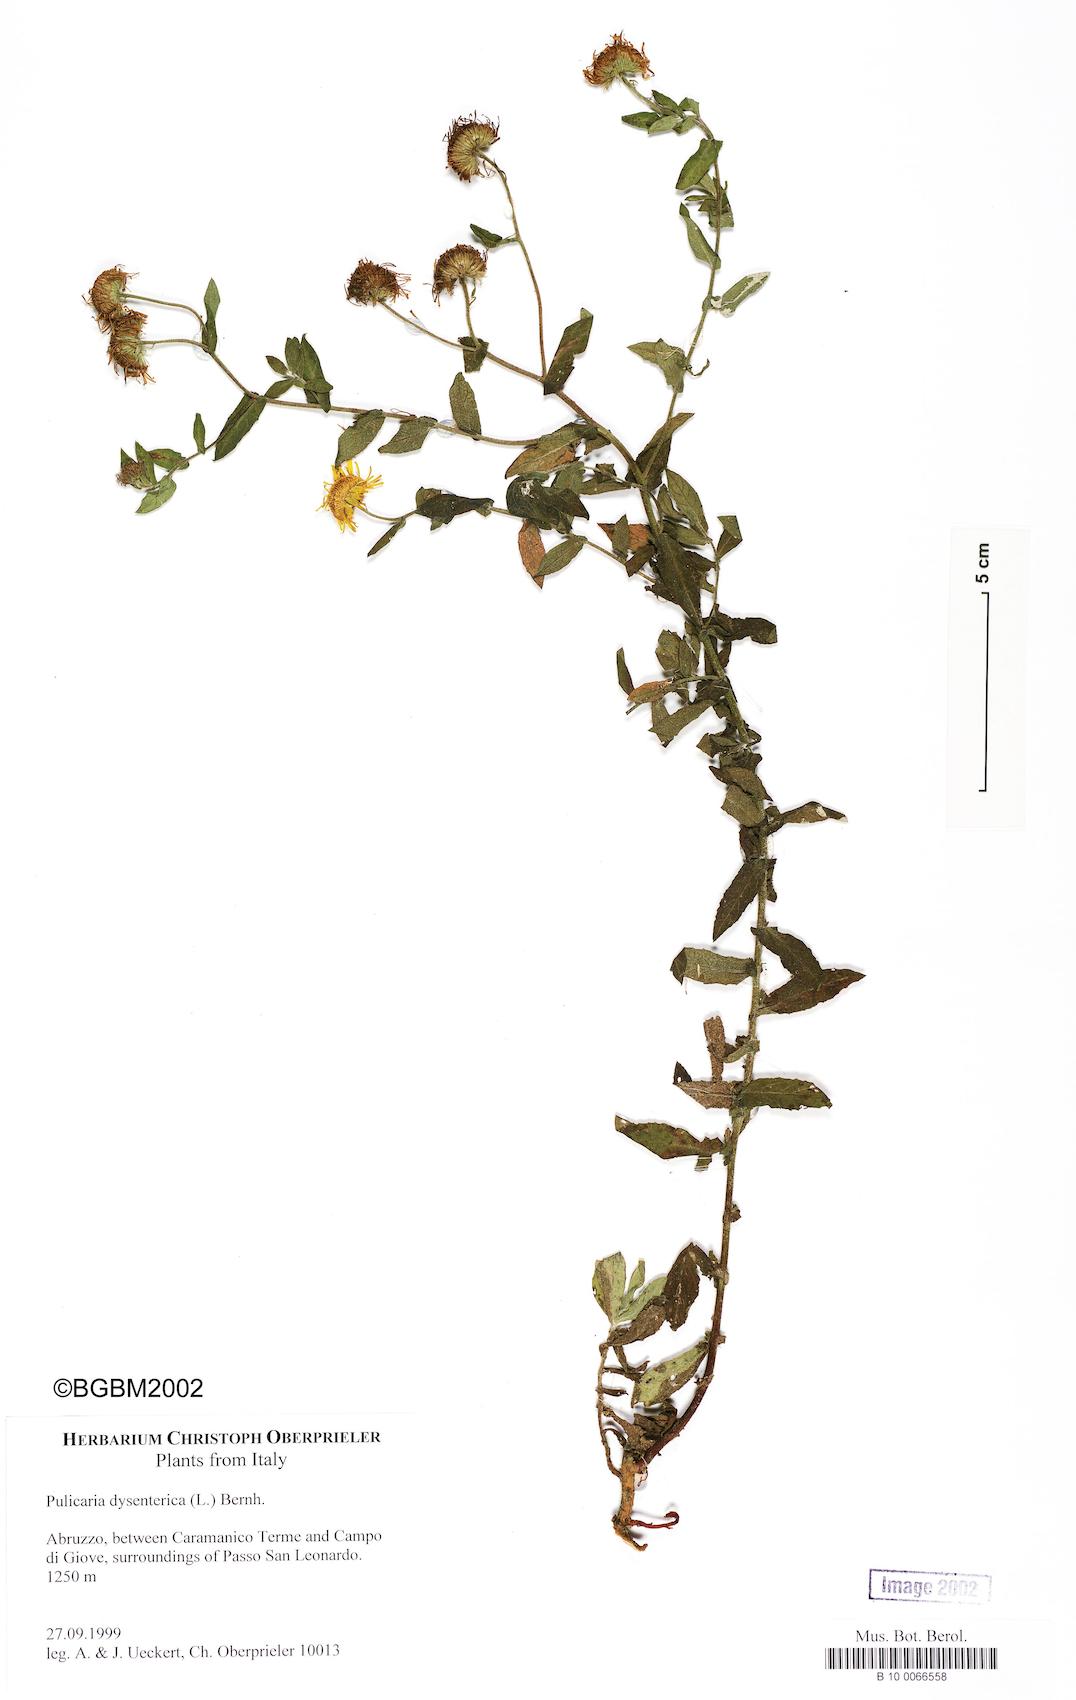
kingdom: Plantae
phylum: Tracheophyta
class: Magnoliopsida
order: Asterales
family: Asteraceae
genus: Pulicaria
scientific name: Pulicaria dysenterica
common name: Common fleabane
